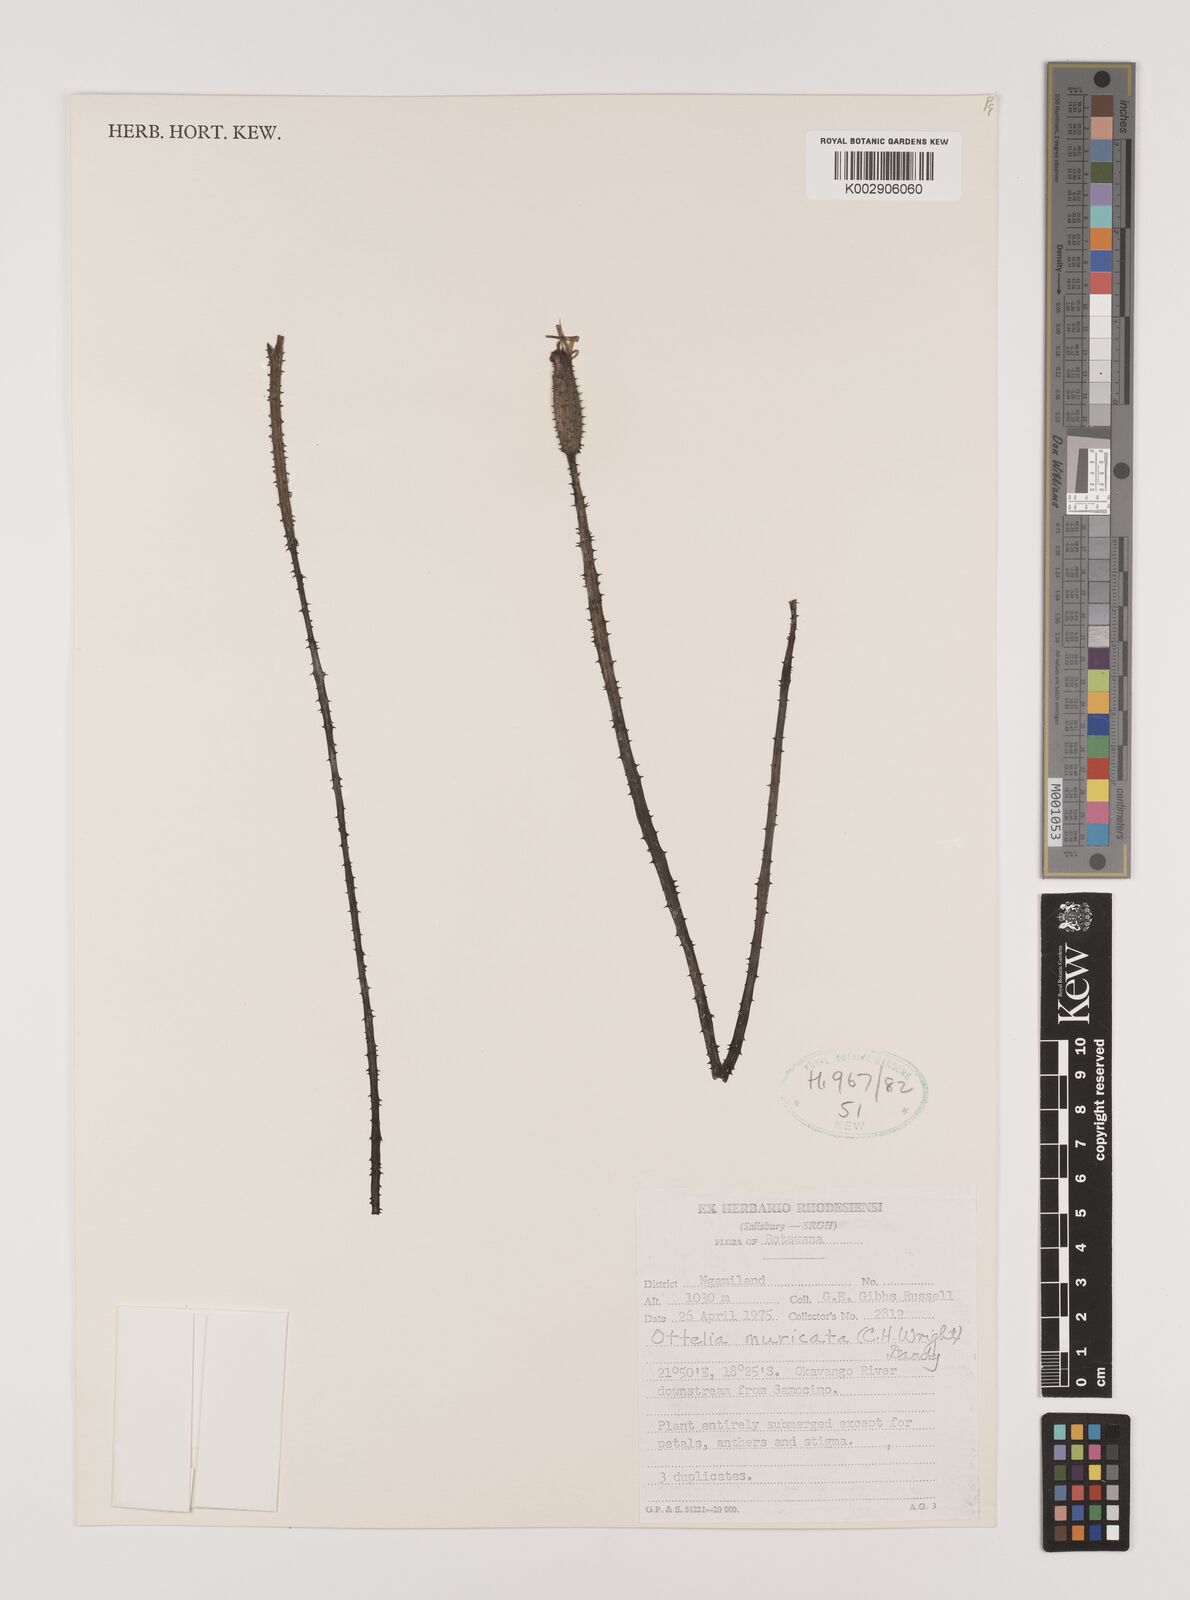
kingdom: Plantae
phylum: Tracheophyta
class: Liliopsida
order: Alismatales
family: Hydrocharitaceae
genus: Ottelia
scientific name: Ottelia muricata
